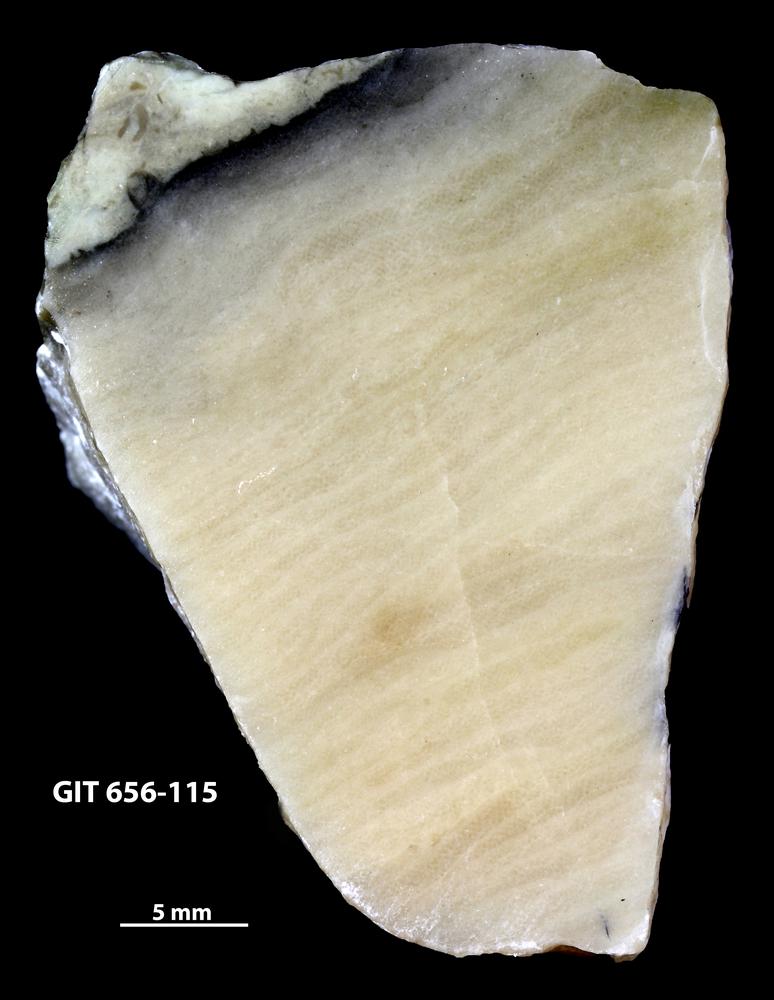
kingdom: Animalia
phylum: Porifera
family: Ecclimadictyidae
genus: Plexodictyon
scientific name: Plexodictyon
